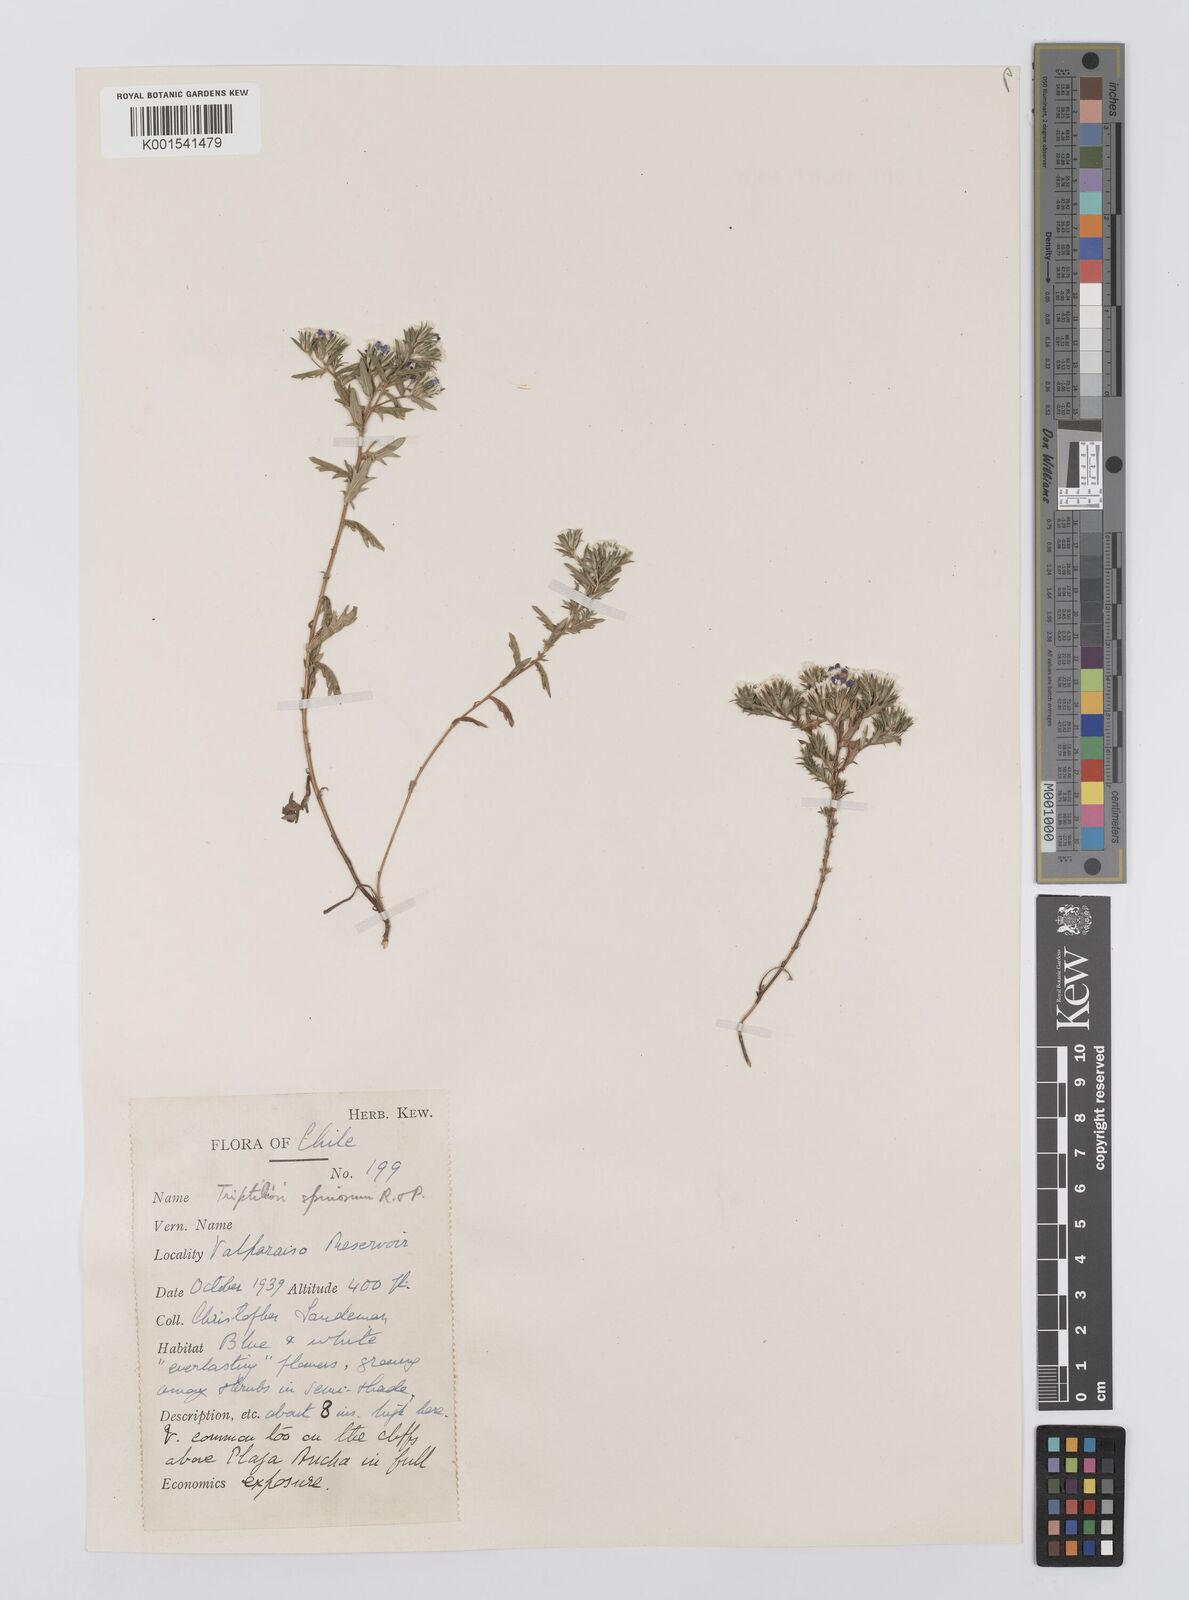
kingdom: Plantae
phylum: Tracheophyta
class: Magnoliopsida
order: Asterales
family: Asteraceae
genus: Triptilion
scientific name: Triptilion spinosum
